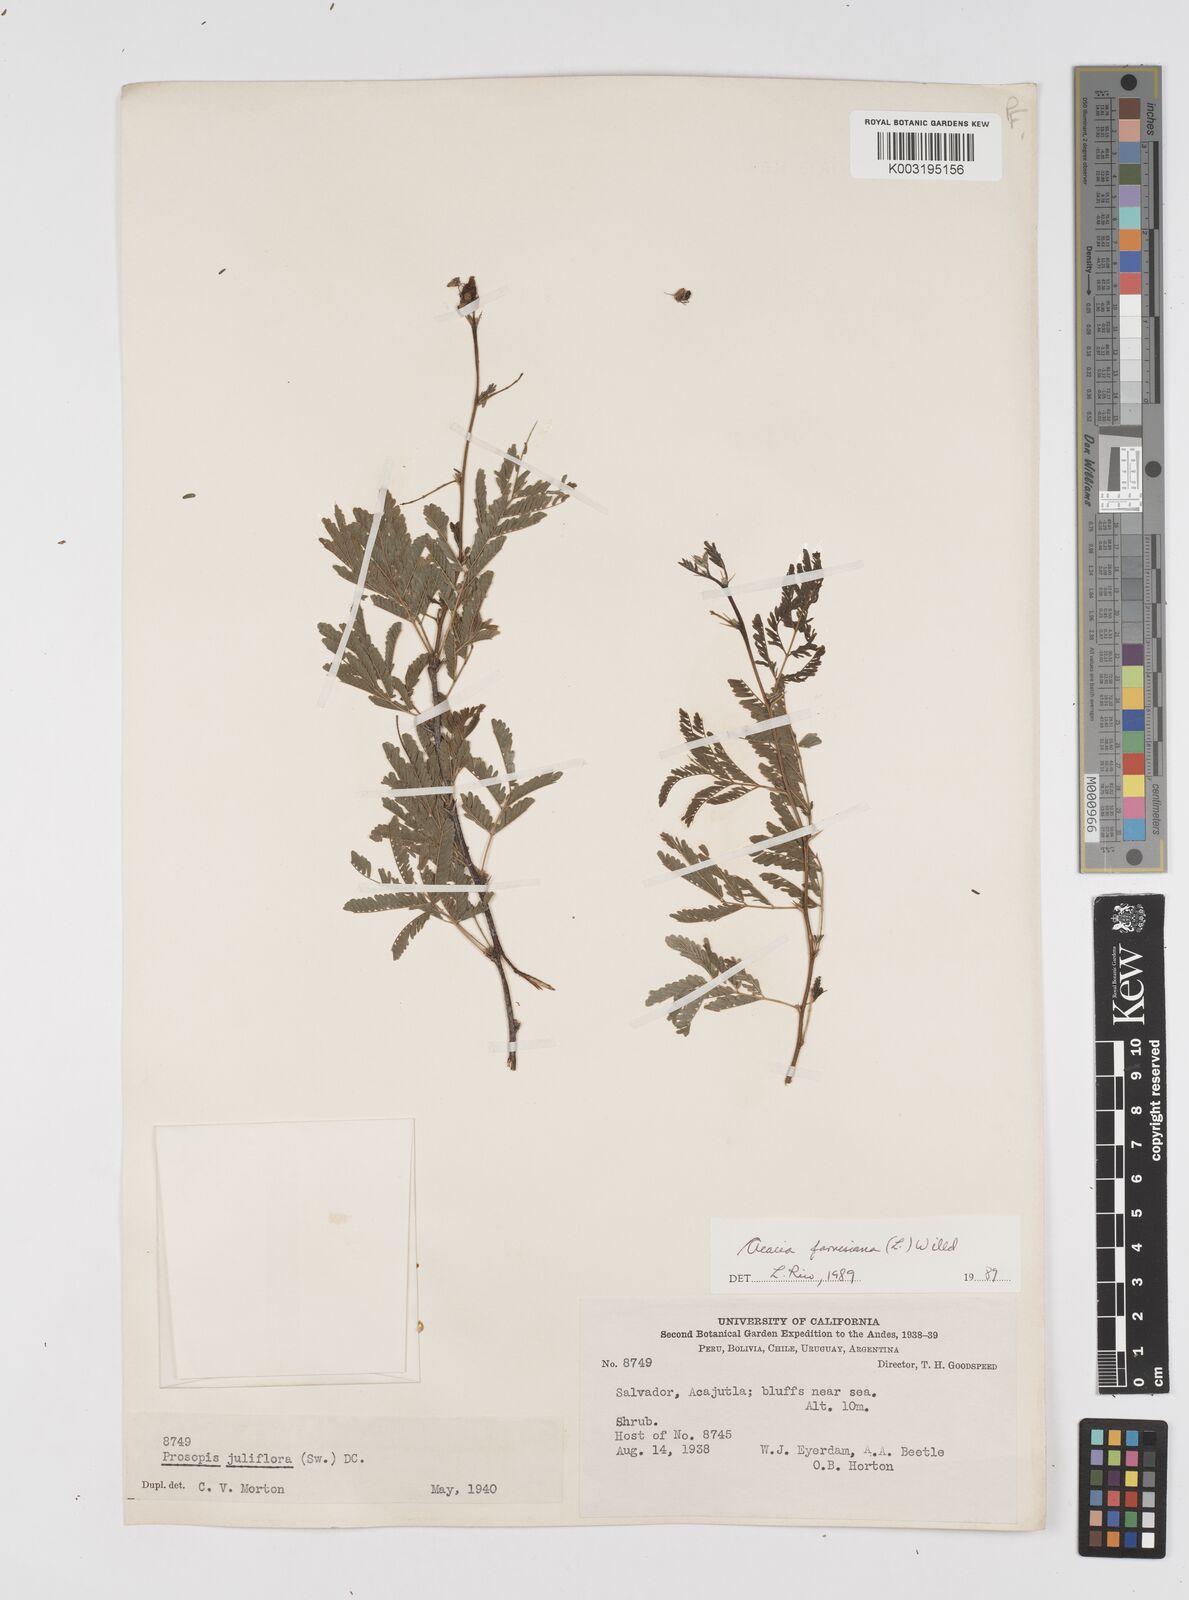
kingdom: Plantae
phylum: Tracheophyta
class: Magnoliopsida
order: Fabales
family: Fabaceae
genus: Vachellia
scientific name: Vachellia farnesiana
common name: Sweet acacia
